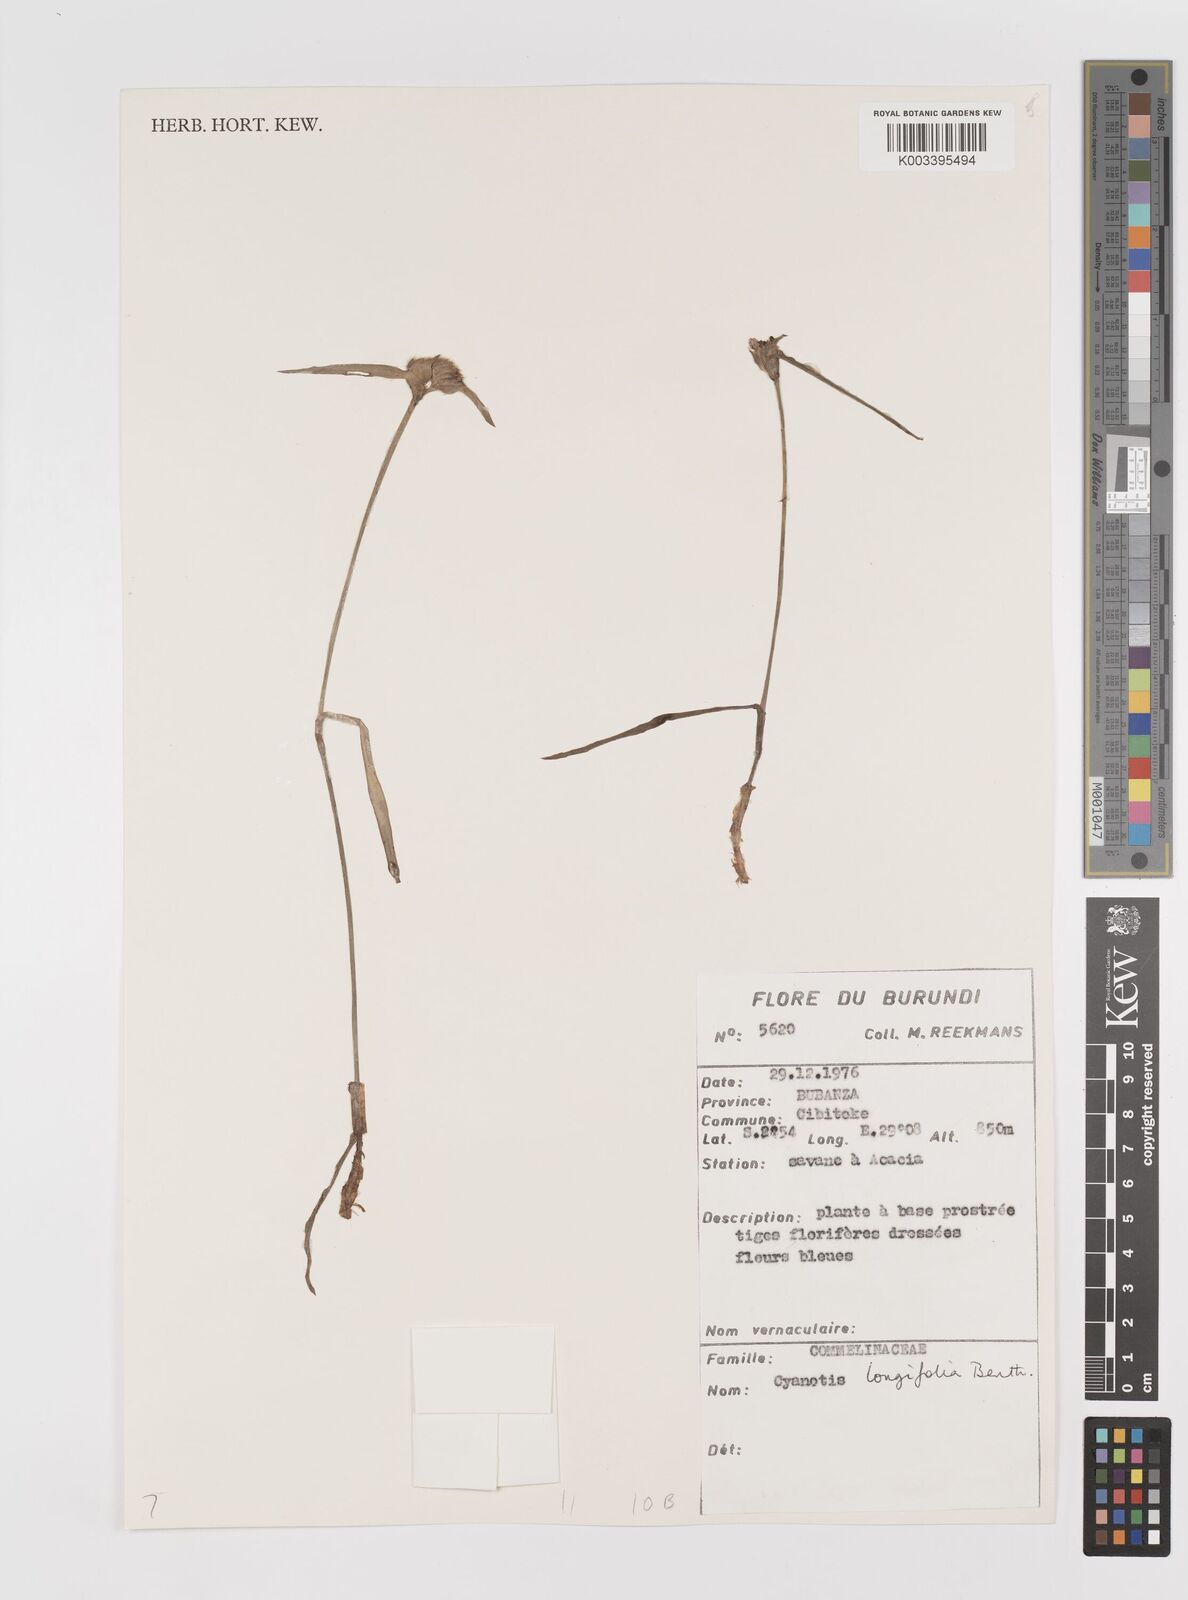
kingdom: Plantae
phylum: Tracheophyta
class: Liliopsida
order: Commelinales
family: Commelinaceae
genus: Cyanotis
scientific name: Cyanotis longifolia
